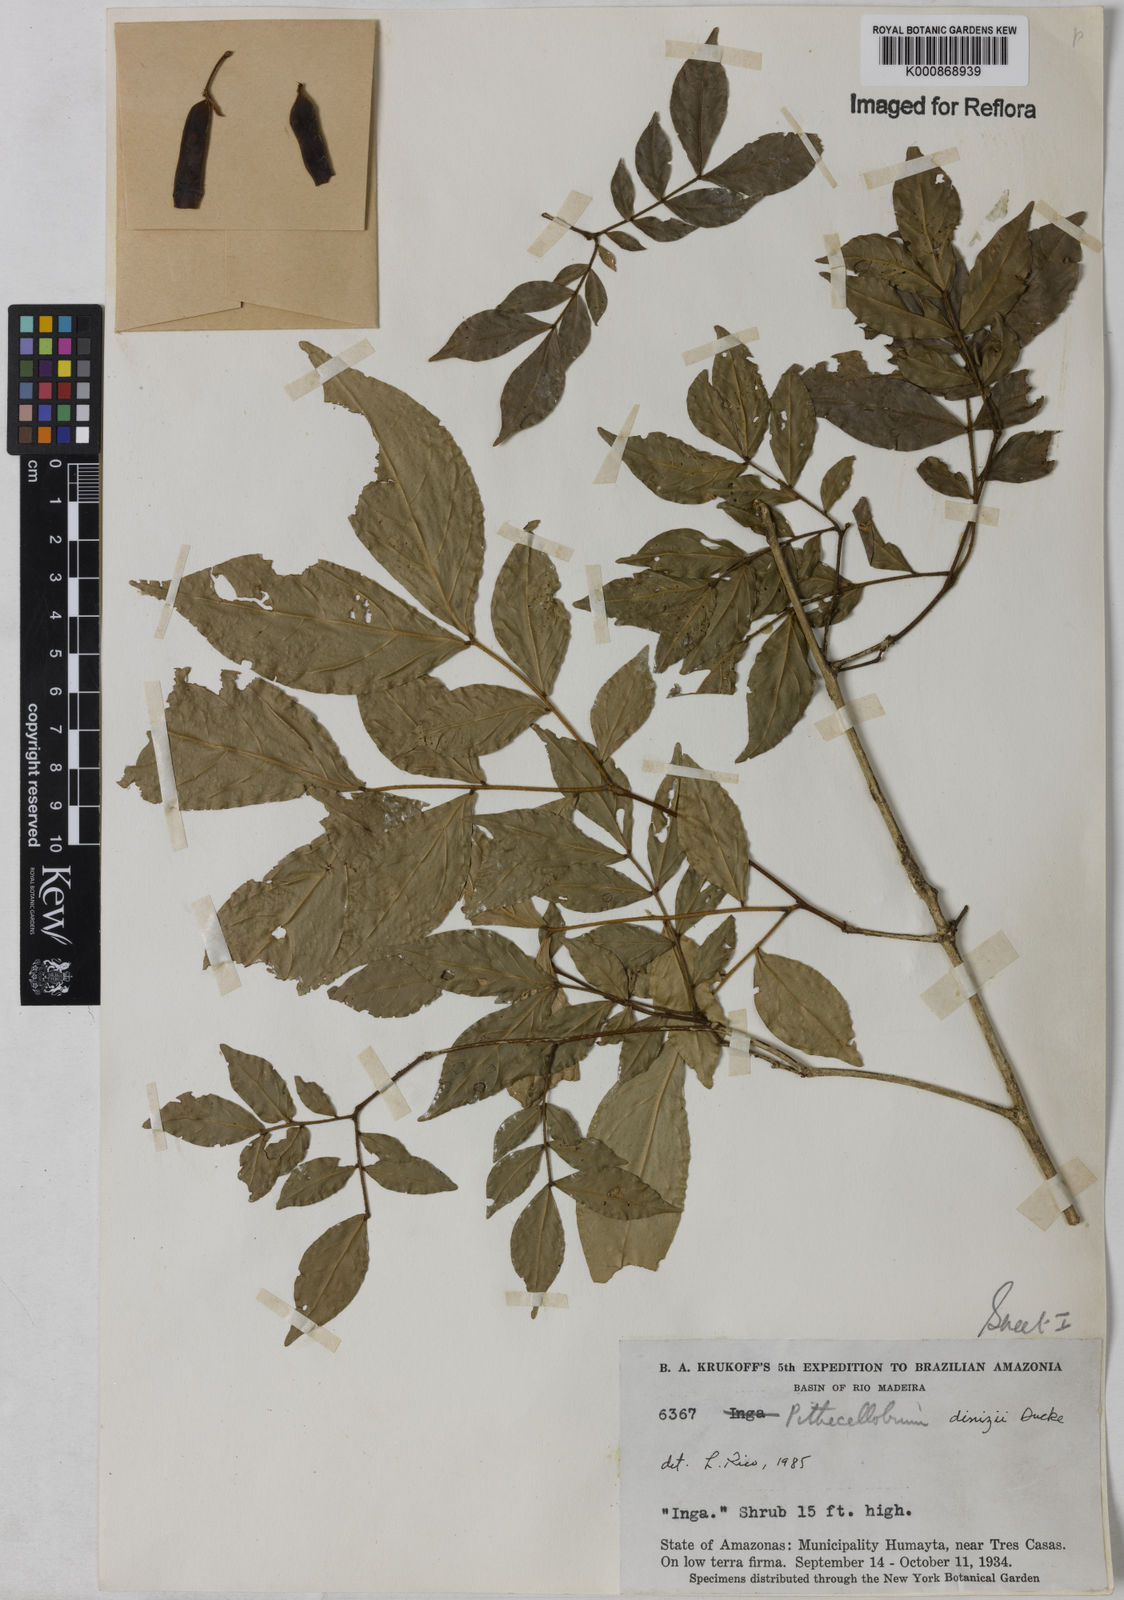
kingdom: Plantae
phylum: Tracheophyta
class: Magnoliopsida
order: Fabales
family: Fabaceae
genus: Zygia
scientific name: Zygia dinizii
